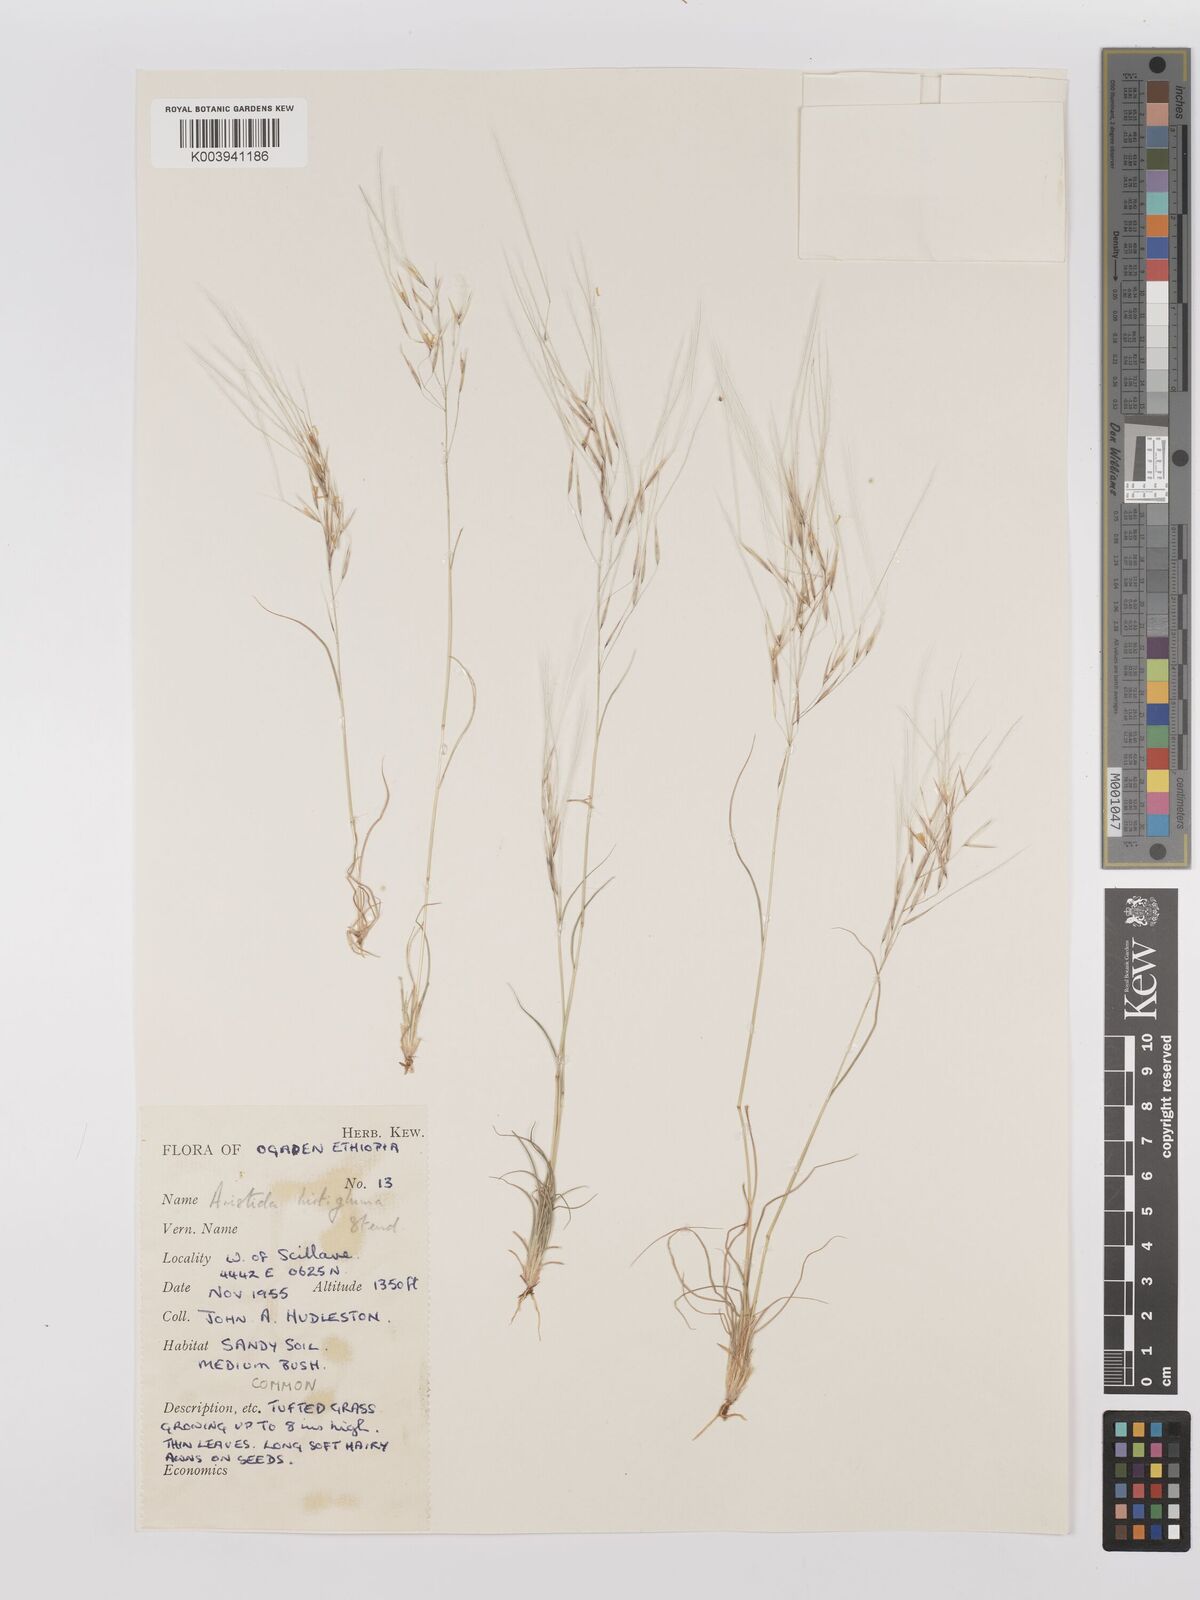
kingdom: Plantae
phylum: Tracheophyta
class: Liliopsida
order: Poales
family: Poaceae
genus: Stipagrostis
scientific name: Stipagrostis hirtigluma
